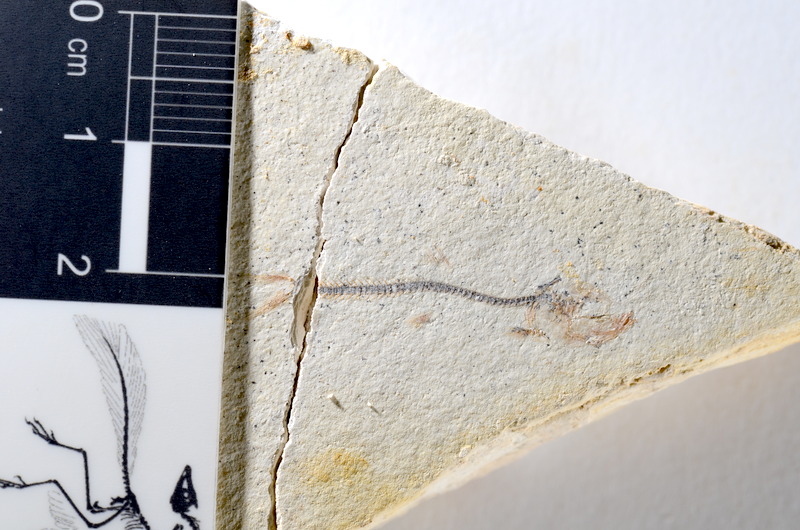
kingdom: Animalia
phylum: Chordata
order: Salmoniformes
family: Orthogonikleithridae
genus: Orthogonikleithrus
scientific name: Orthogonikleithrus hoelli
